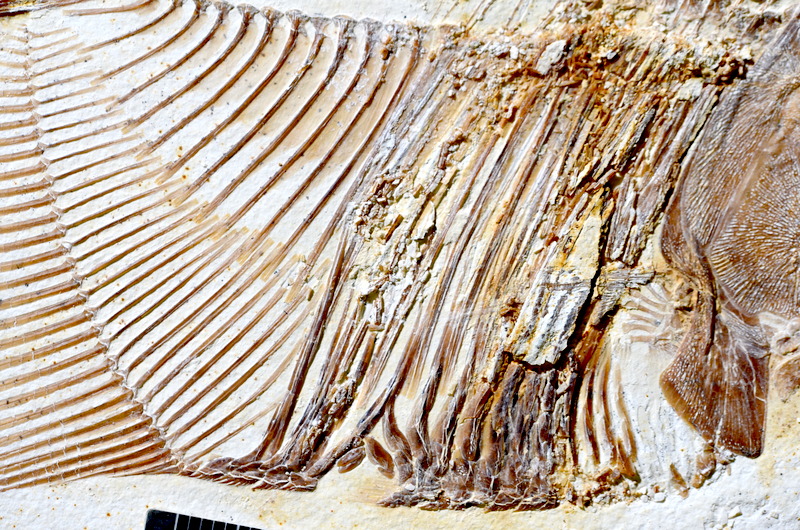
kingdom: Animalia
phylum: Chordata
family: Pycnodontidae
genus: Turbomesodon
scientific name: Turbomesodon relegans
